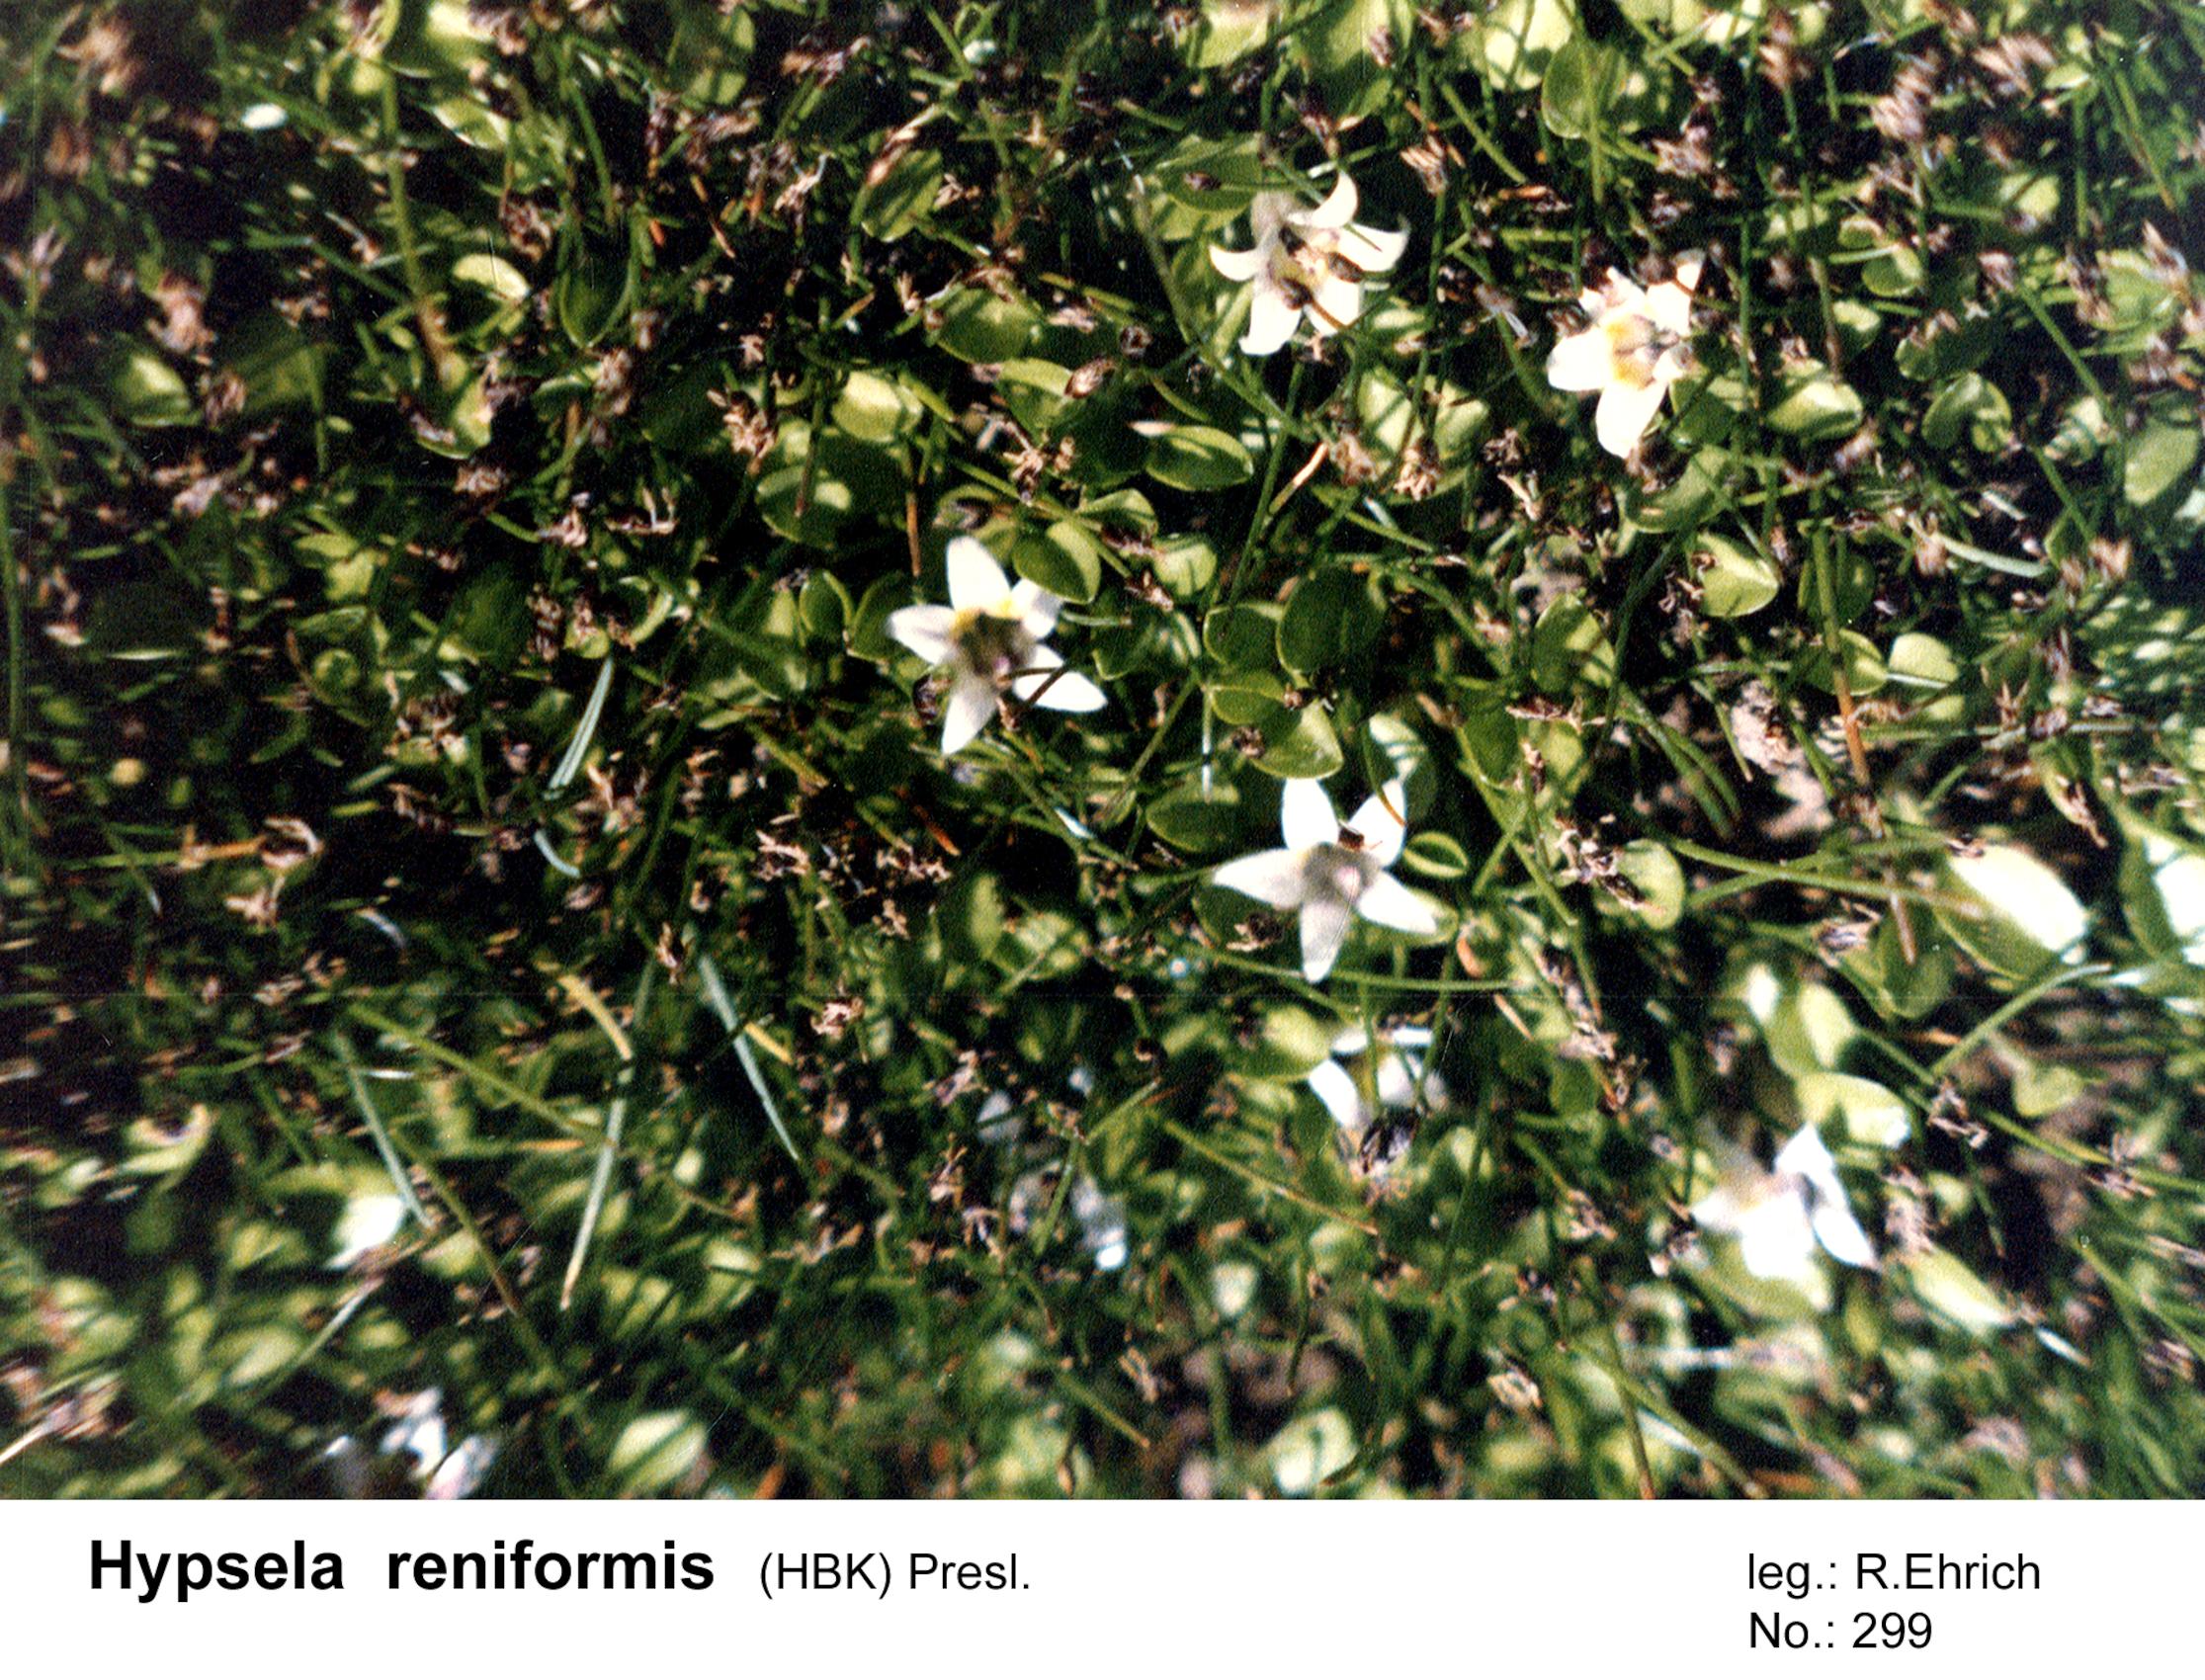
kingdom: Plantae
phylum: Tracheophyta
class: Magnoliopsida
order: Asterales
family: Campanulaceae
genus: Lobelia
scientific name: Lobelia oligophylla
